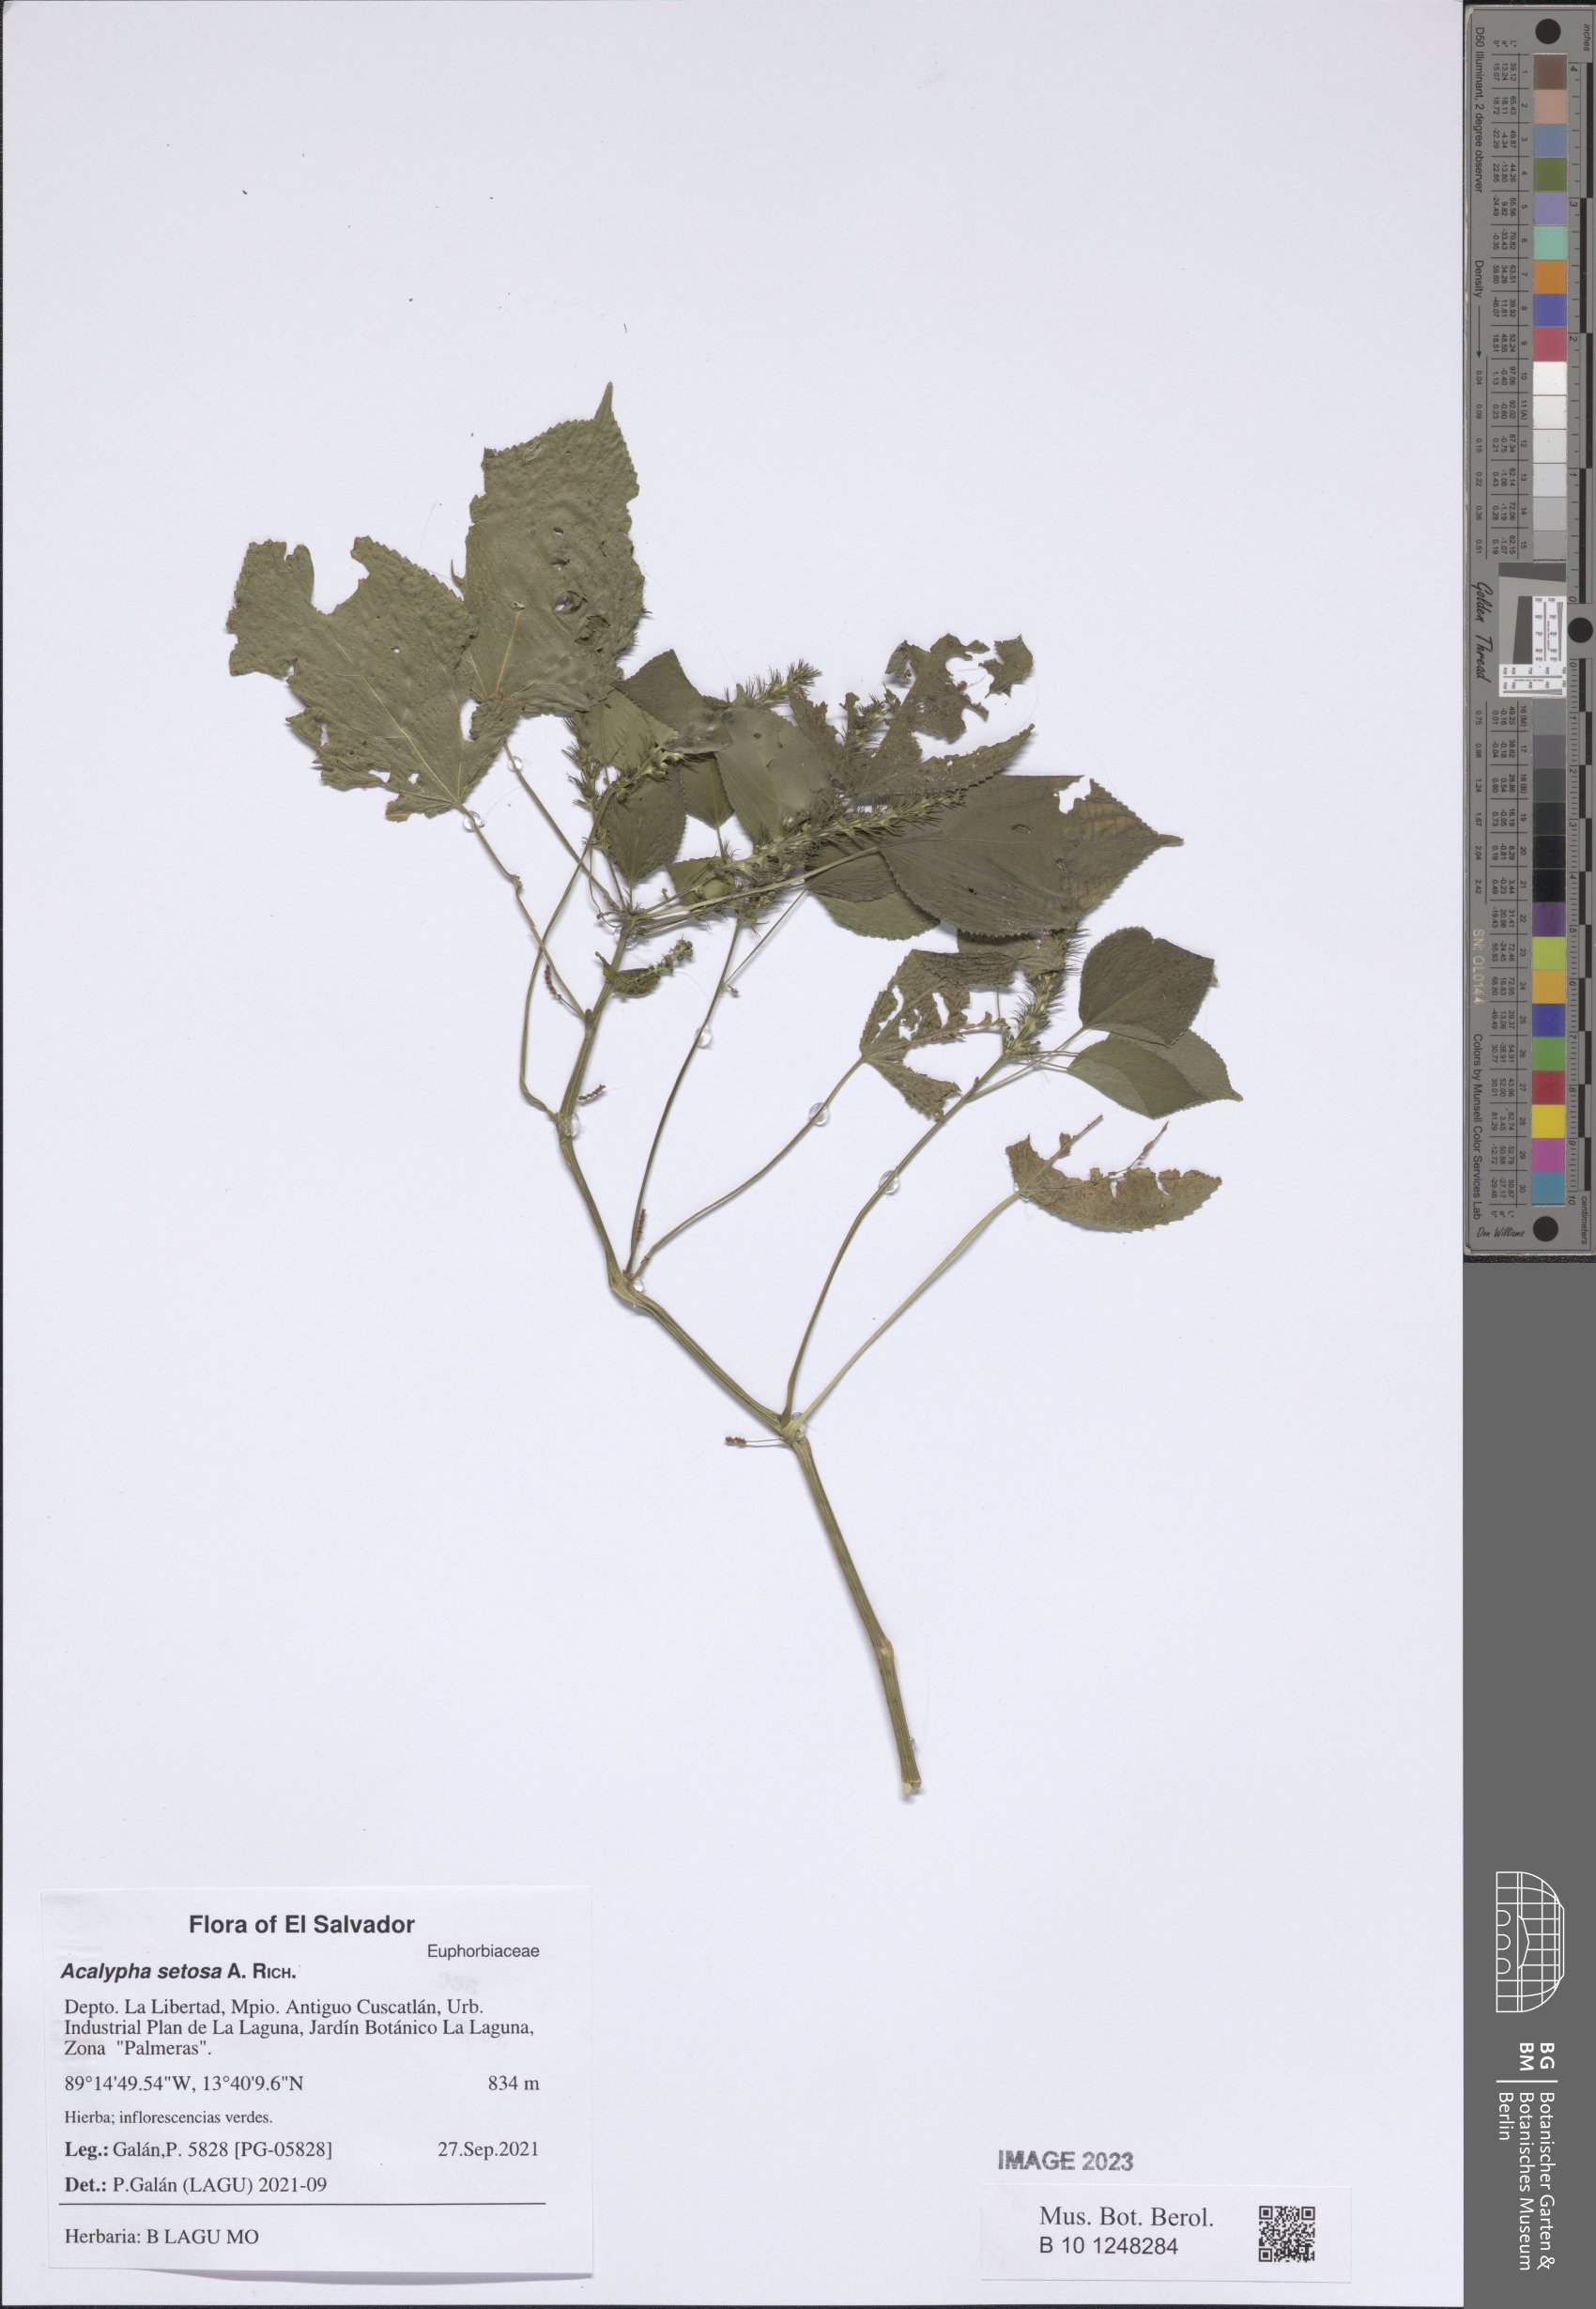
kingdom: Plantae
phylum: Tracheophyta
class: Magnoliopsida
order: Malpighiales
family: Euphorbiaceae
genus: Acalypha
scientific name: Acalypha setosa
